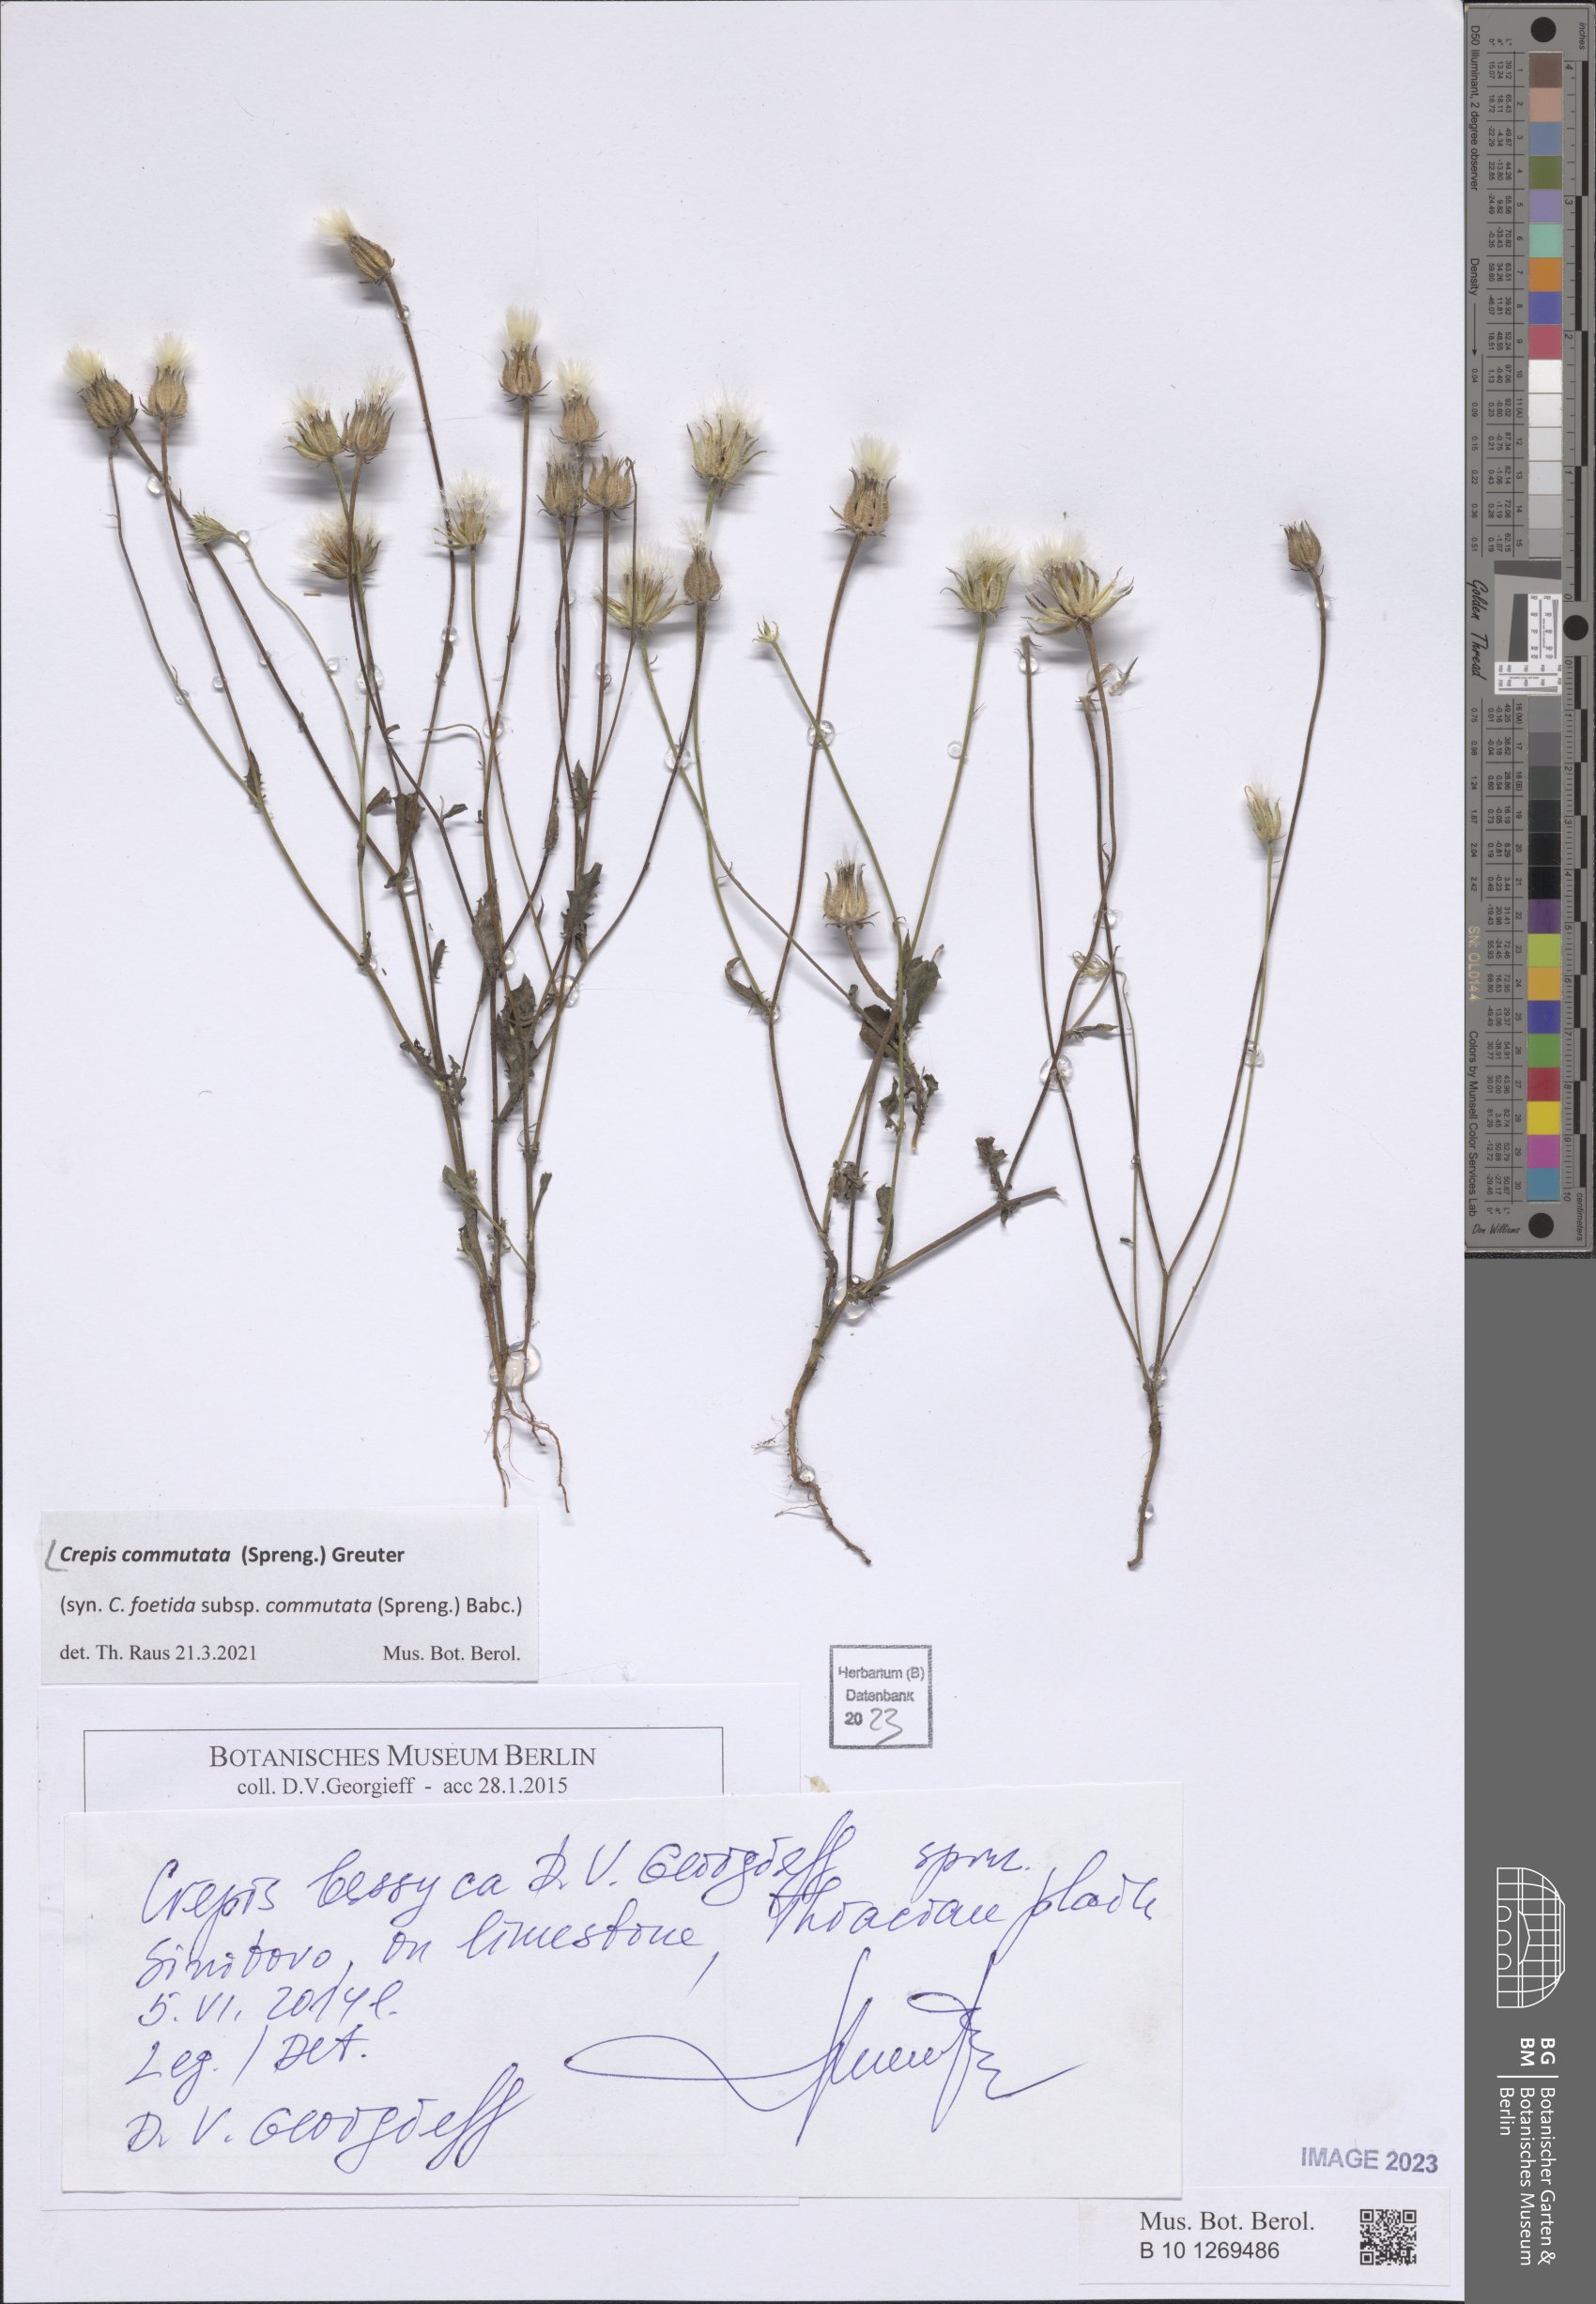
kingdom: Plantae
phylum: Tracheophyta
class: Magnoliopsida
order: Asterales
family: Asteraceae
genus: Crepis
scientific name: Crepis commutata
